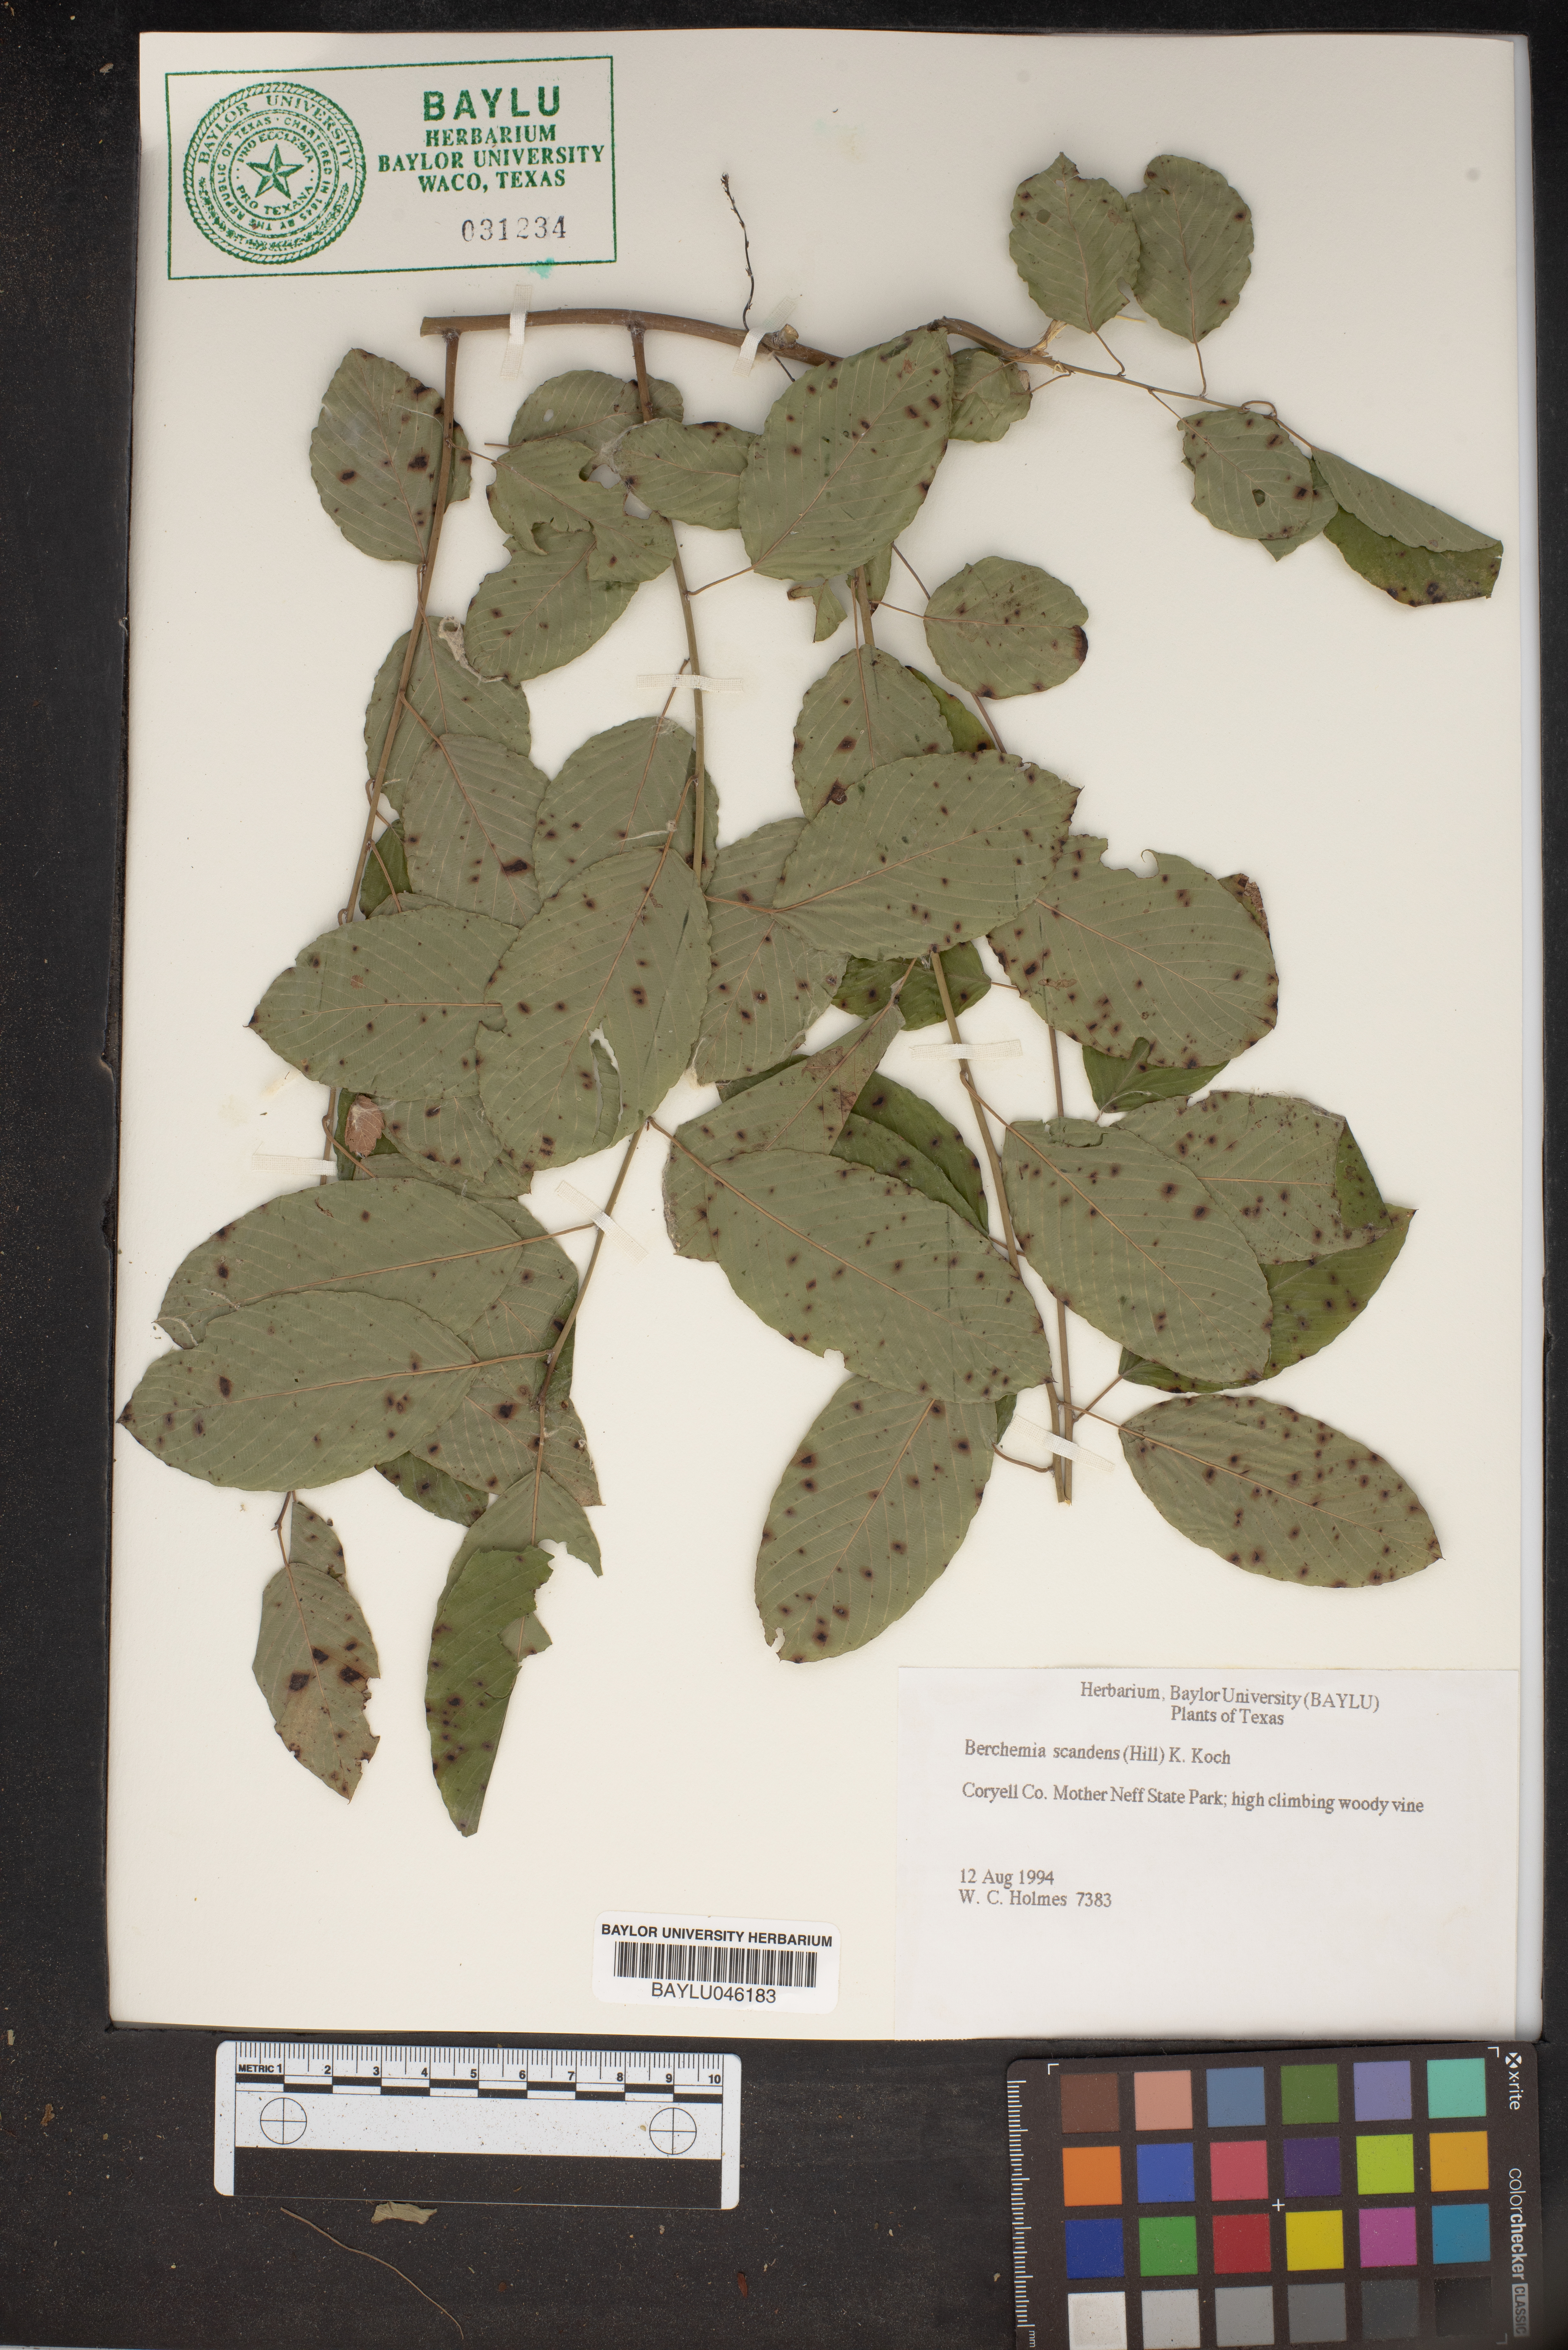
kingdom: Plantae
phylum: Tracheophyta
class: Magnoliopsida
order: Rosales
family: Rhamnaceae
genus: Berchemia
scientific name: Berchemia scandens
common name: Supplejack
